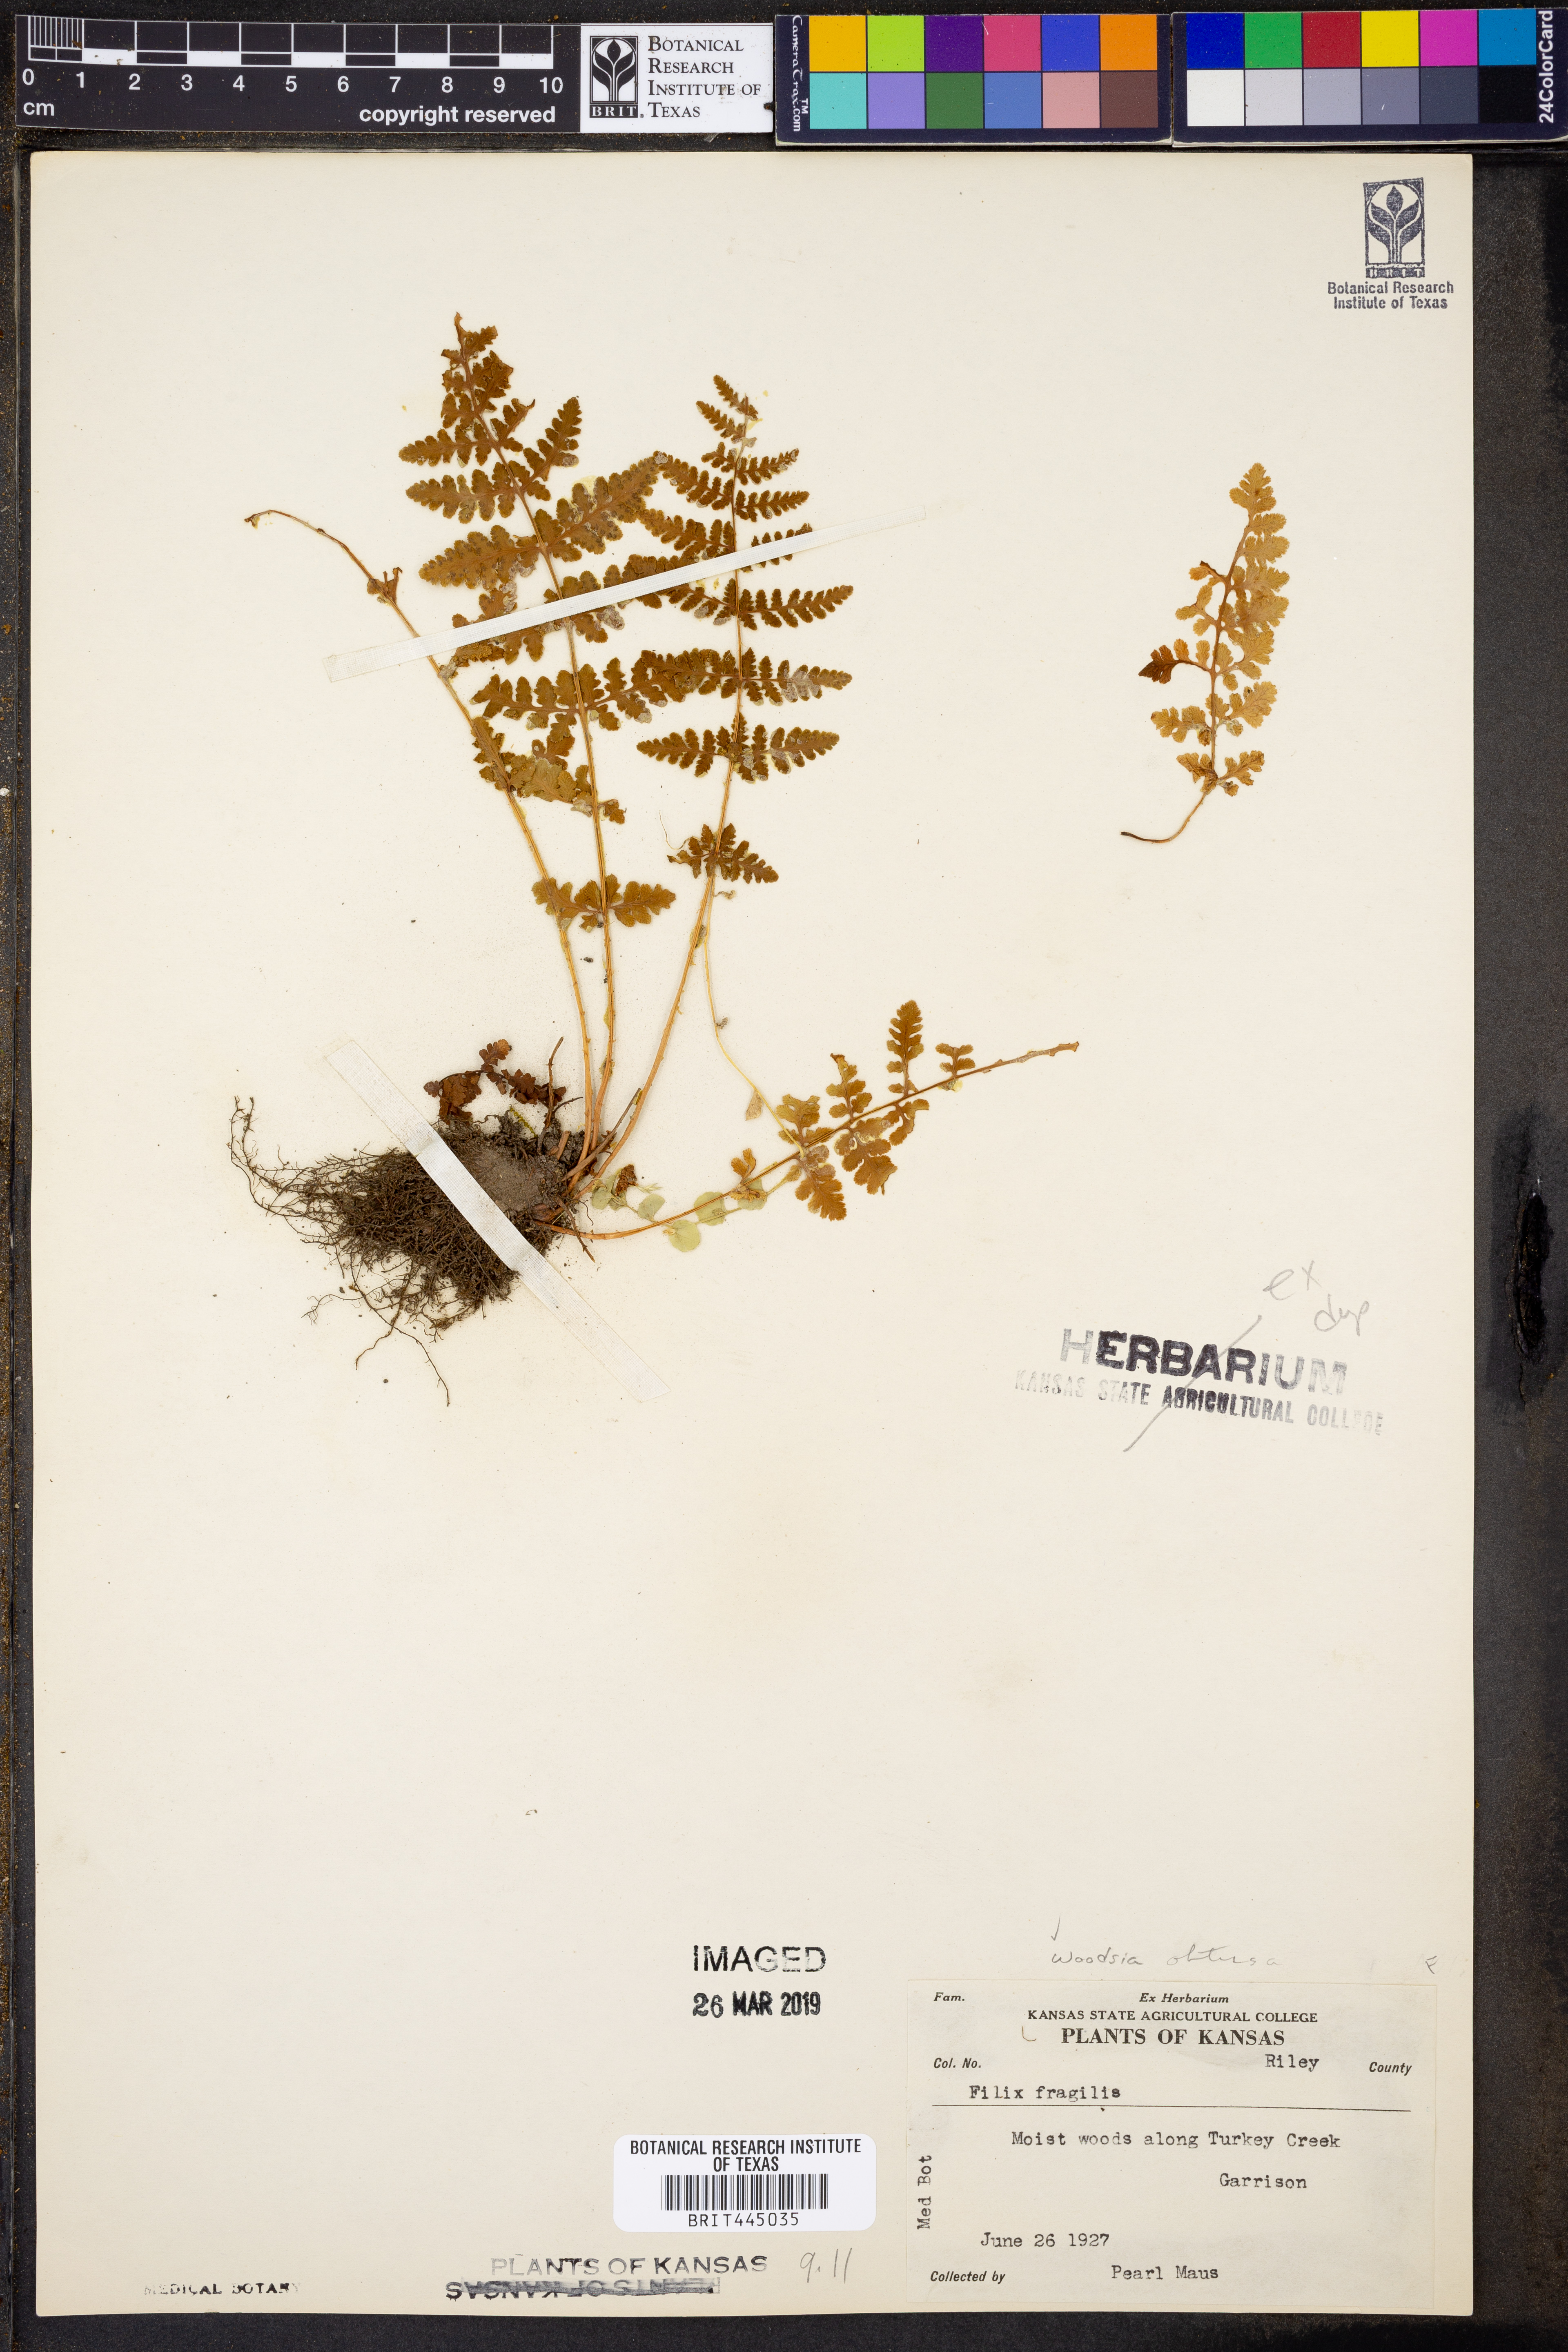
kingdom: Plantae
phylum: Tracheophyta
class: Polypodiopsida
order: Polypodiales
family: Woodsiaceae
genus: Physematium
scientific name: Physematium obtusum
